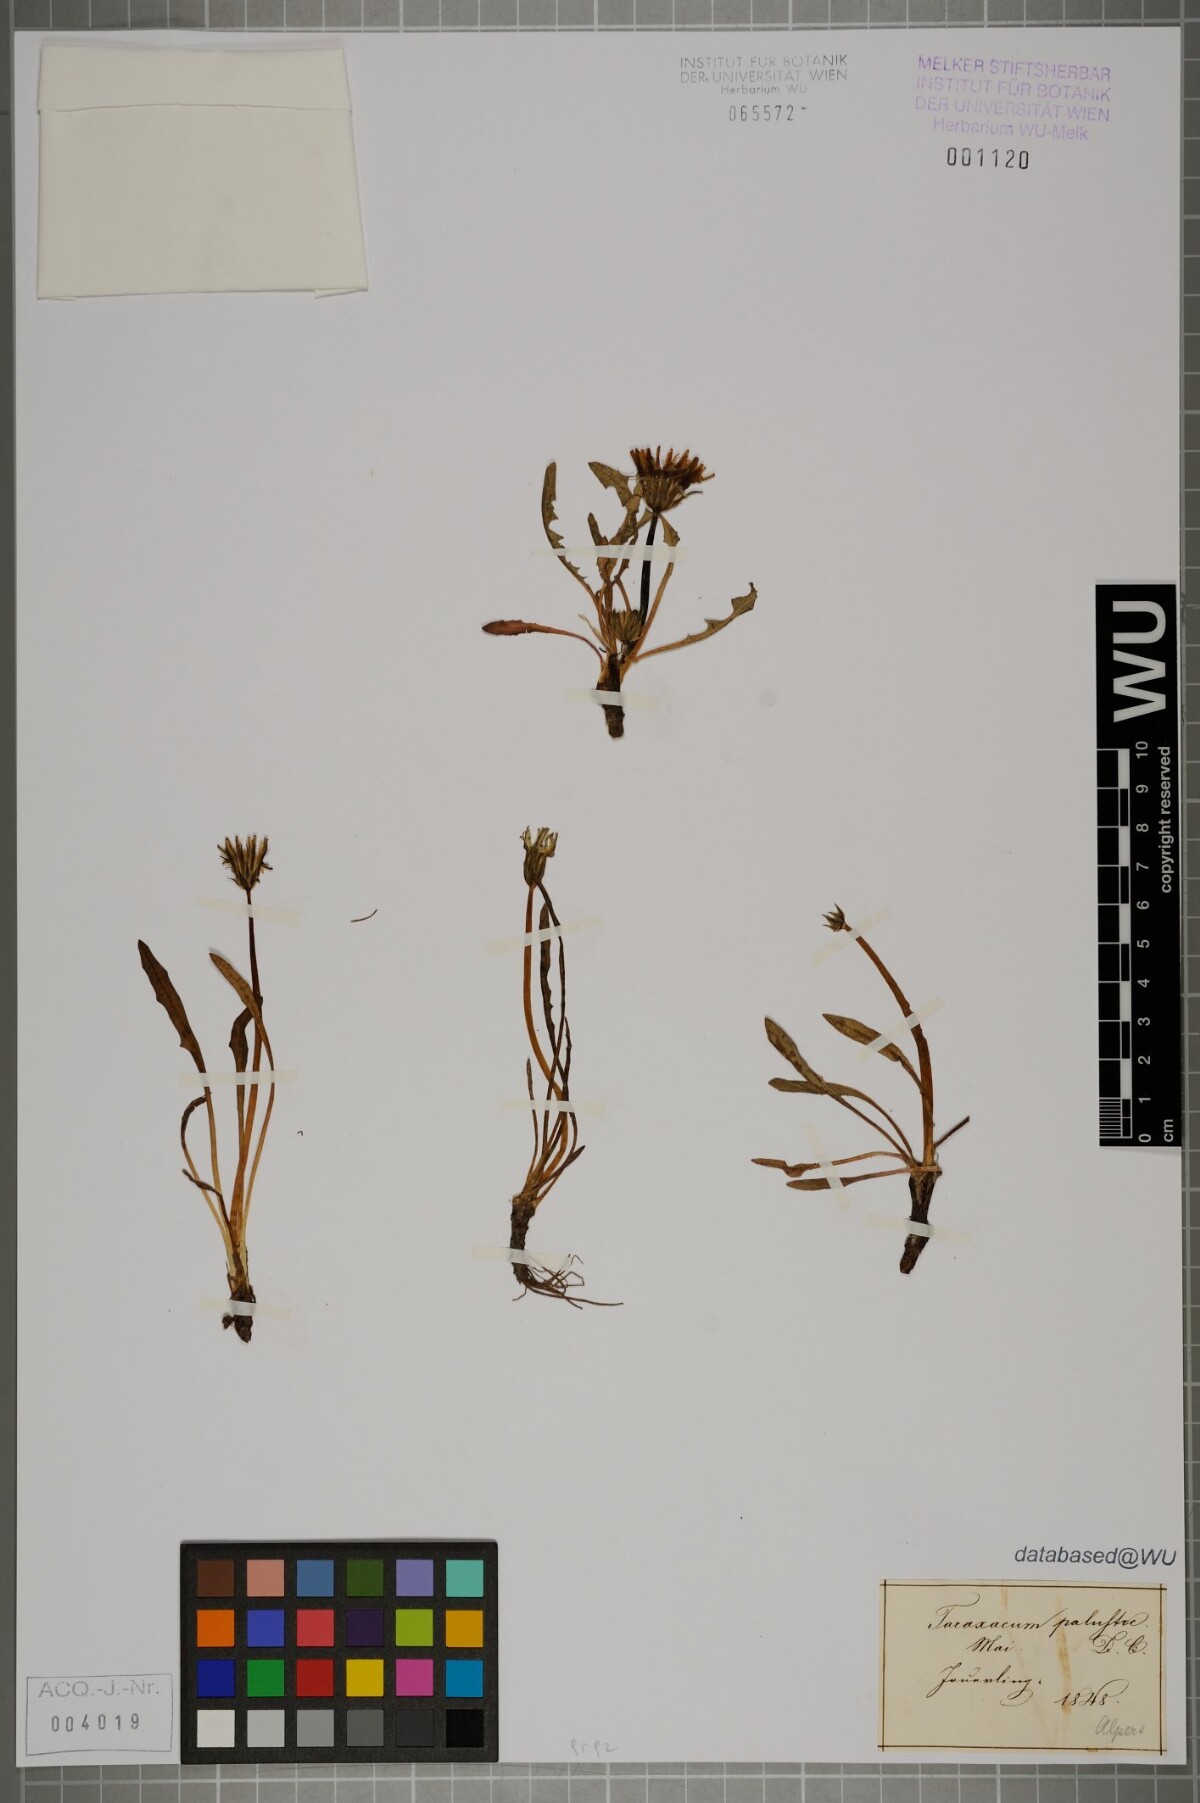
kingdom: Plantae
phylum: Tracheophyta
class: Magnoliopsida
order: Asterales
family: Asteraceae
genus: Taraxacum
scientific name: Taraxacum
